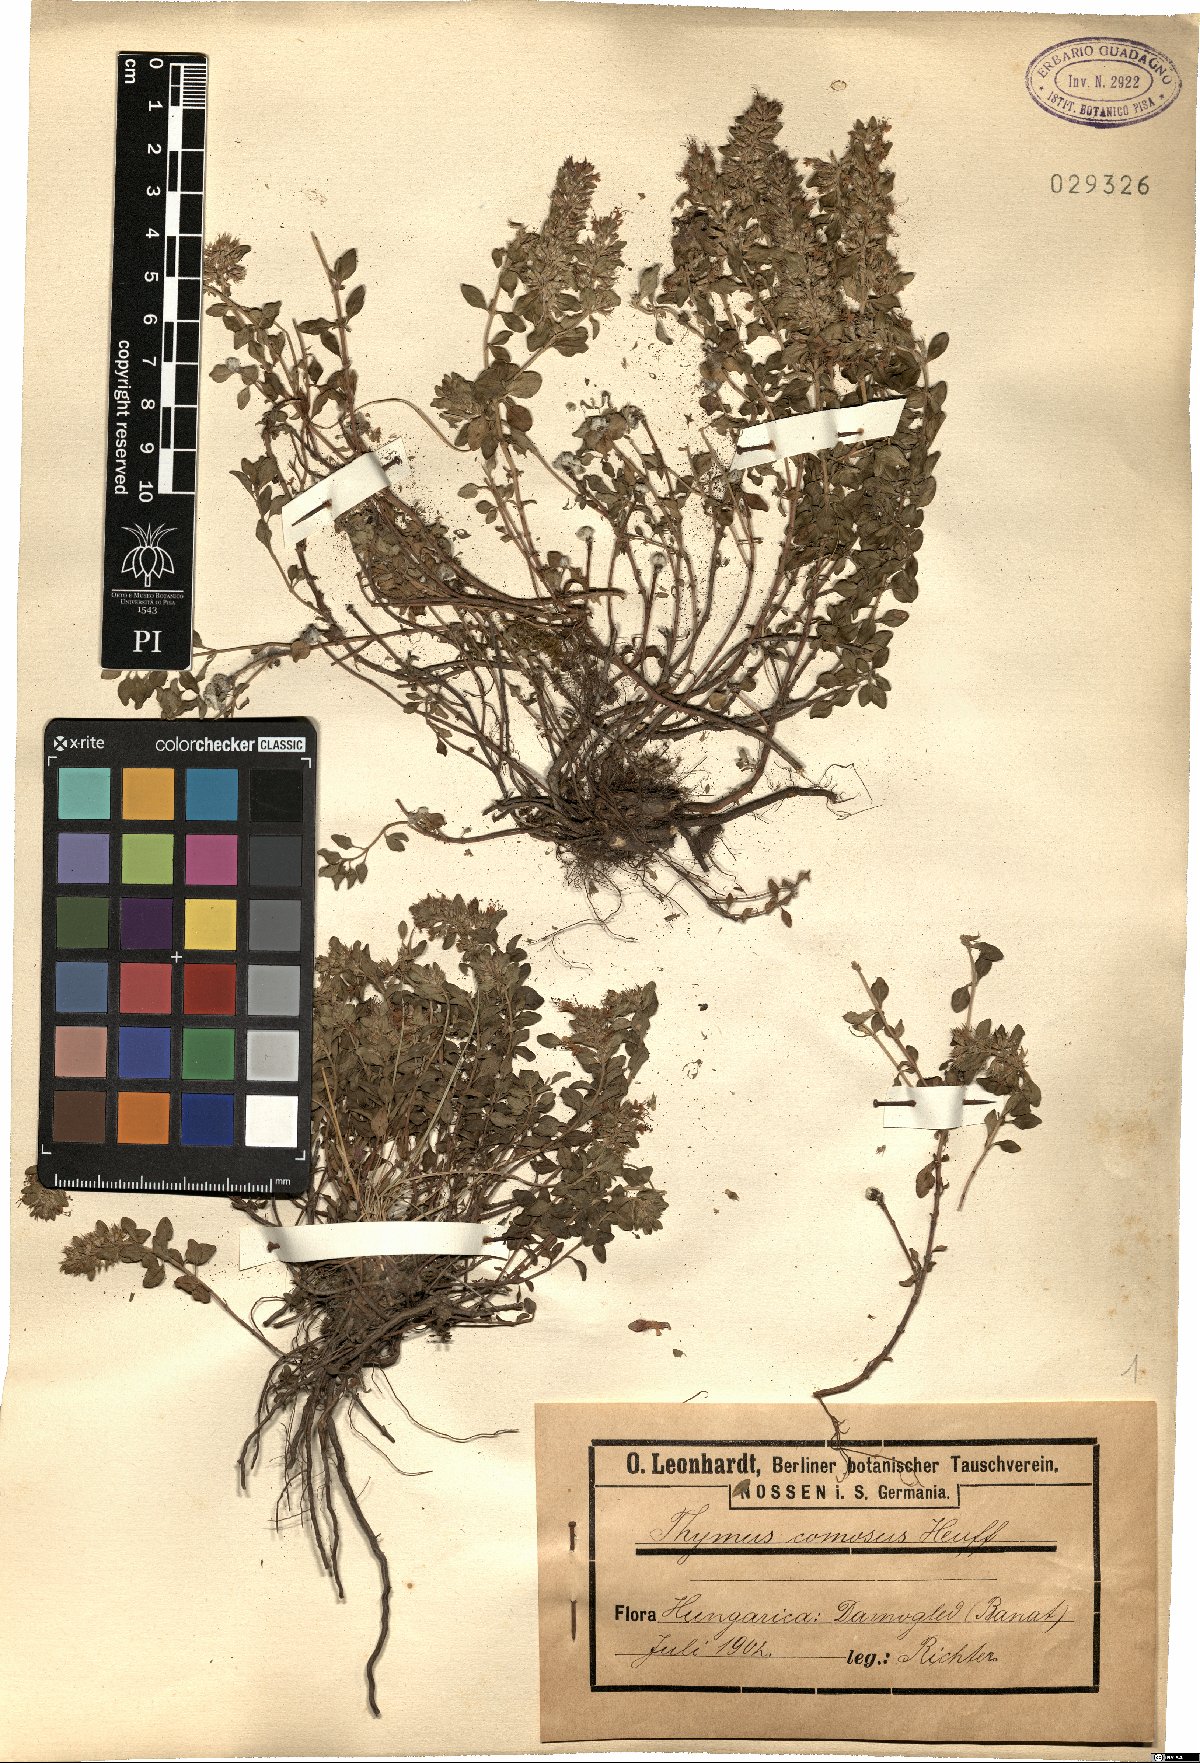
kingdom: Plantae
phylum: Tracheophyta
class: Magnoliopsida
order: Lamiales
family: Lamiaceae
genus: Thymus
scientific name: Thymus comosus
